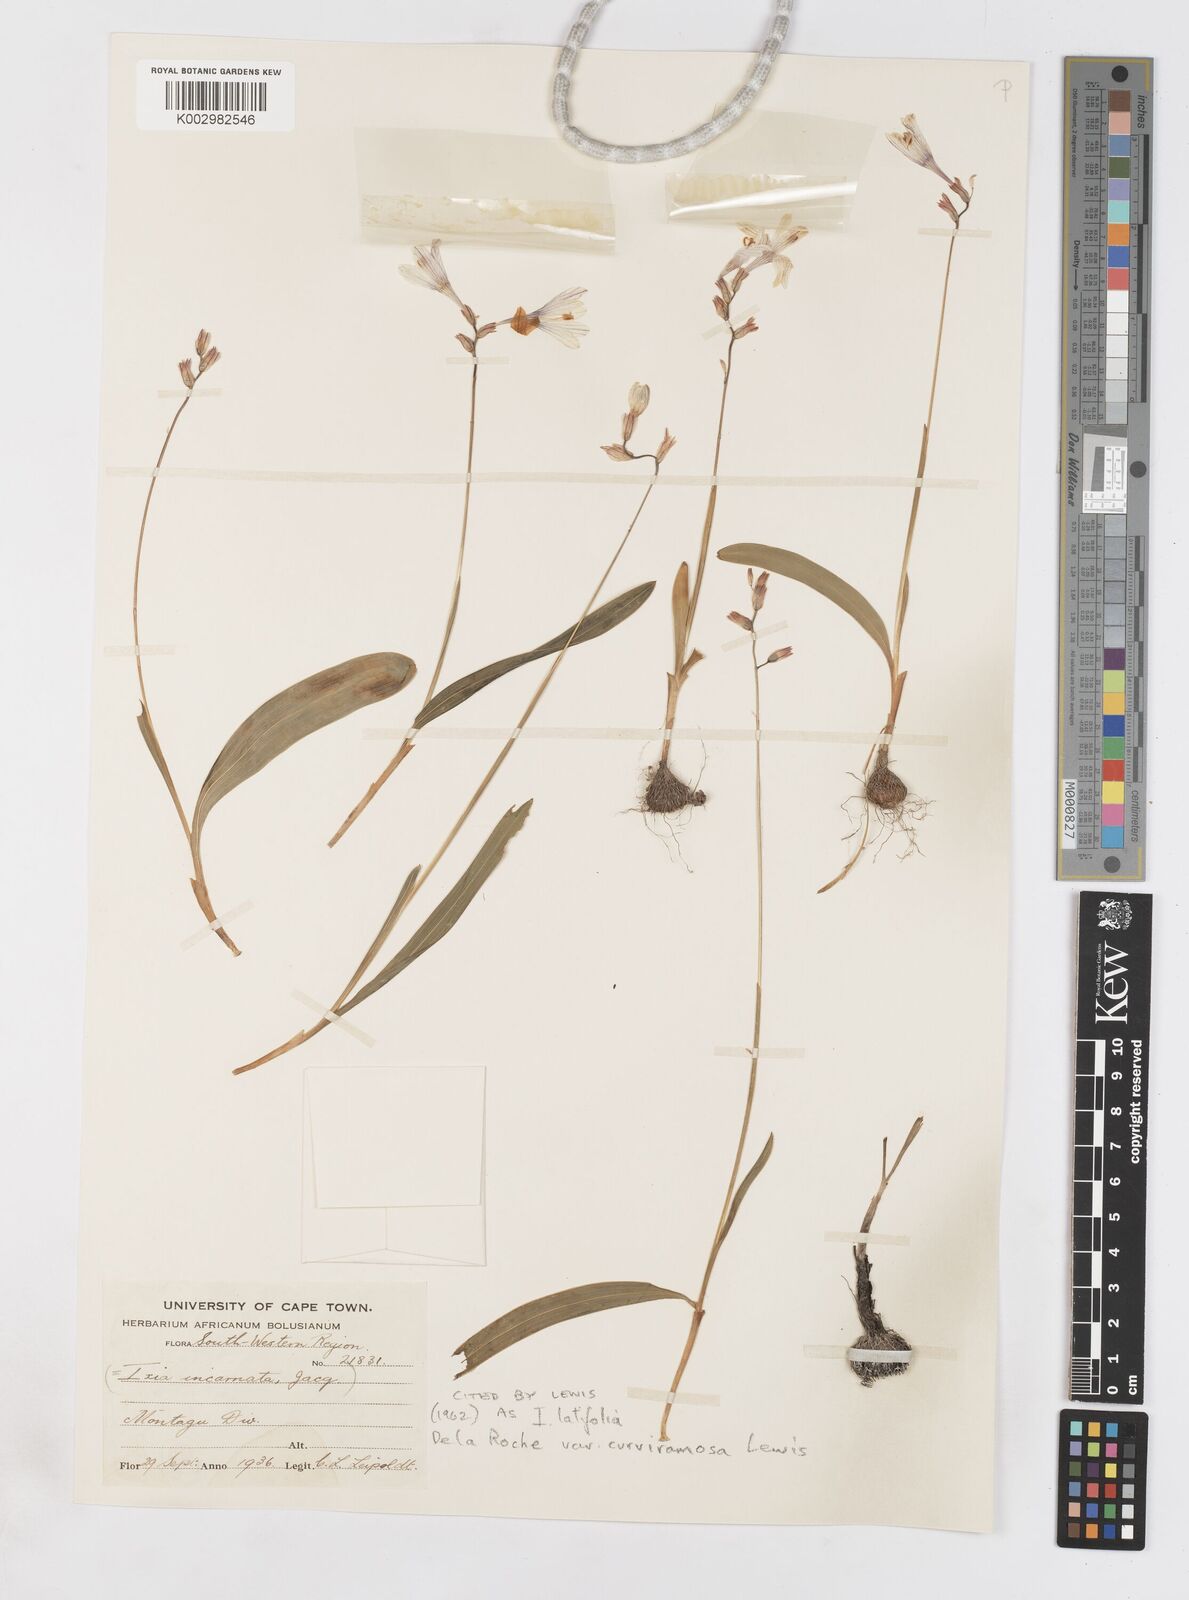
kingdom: Plantae
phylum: Tracheophyta
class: Liliopsida
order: Asparagales
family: Iridaceae
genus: Ixia
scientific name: Ixia latifolia
